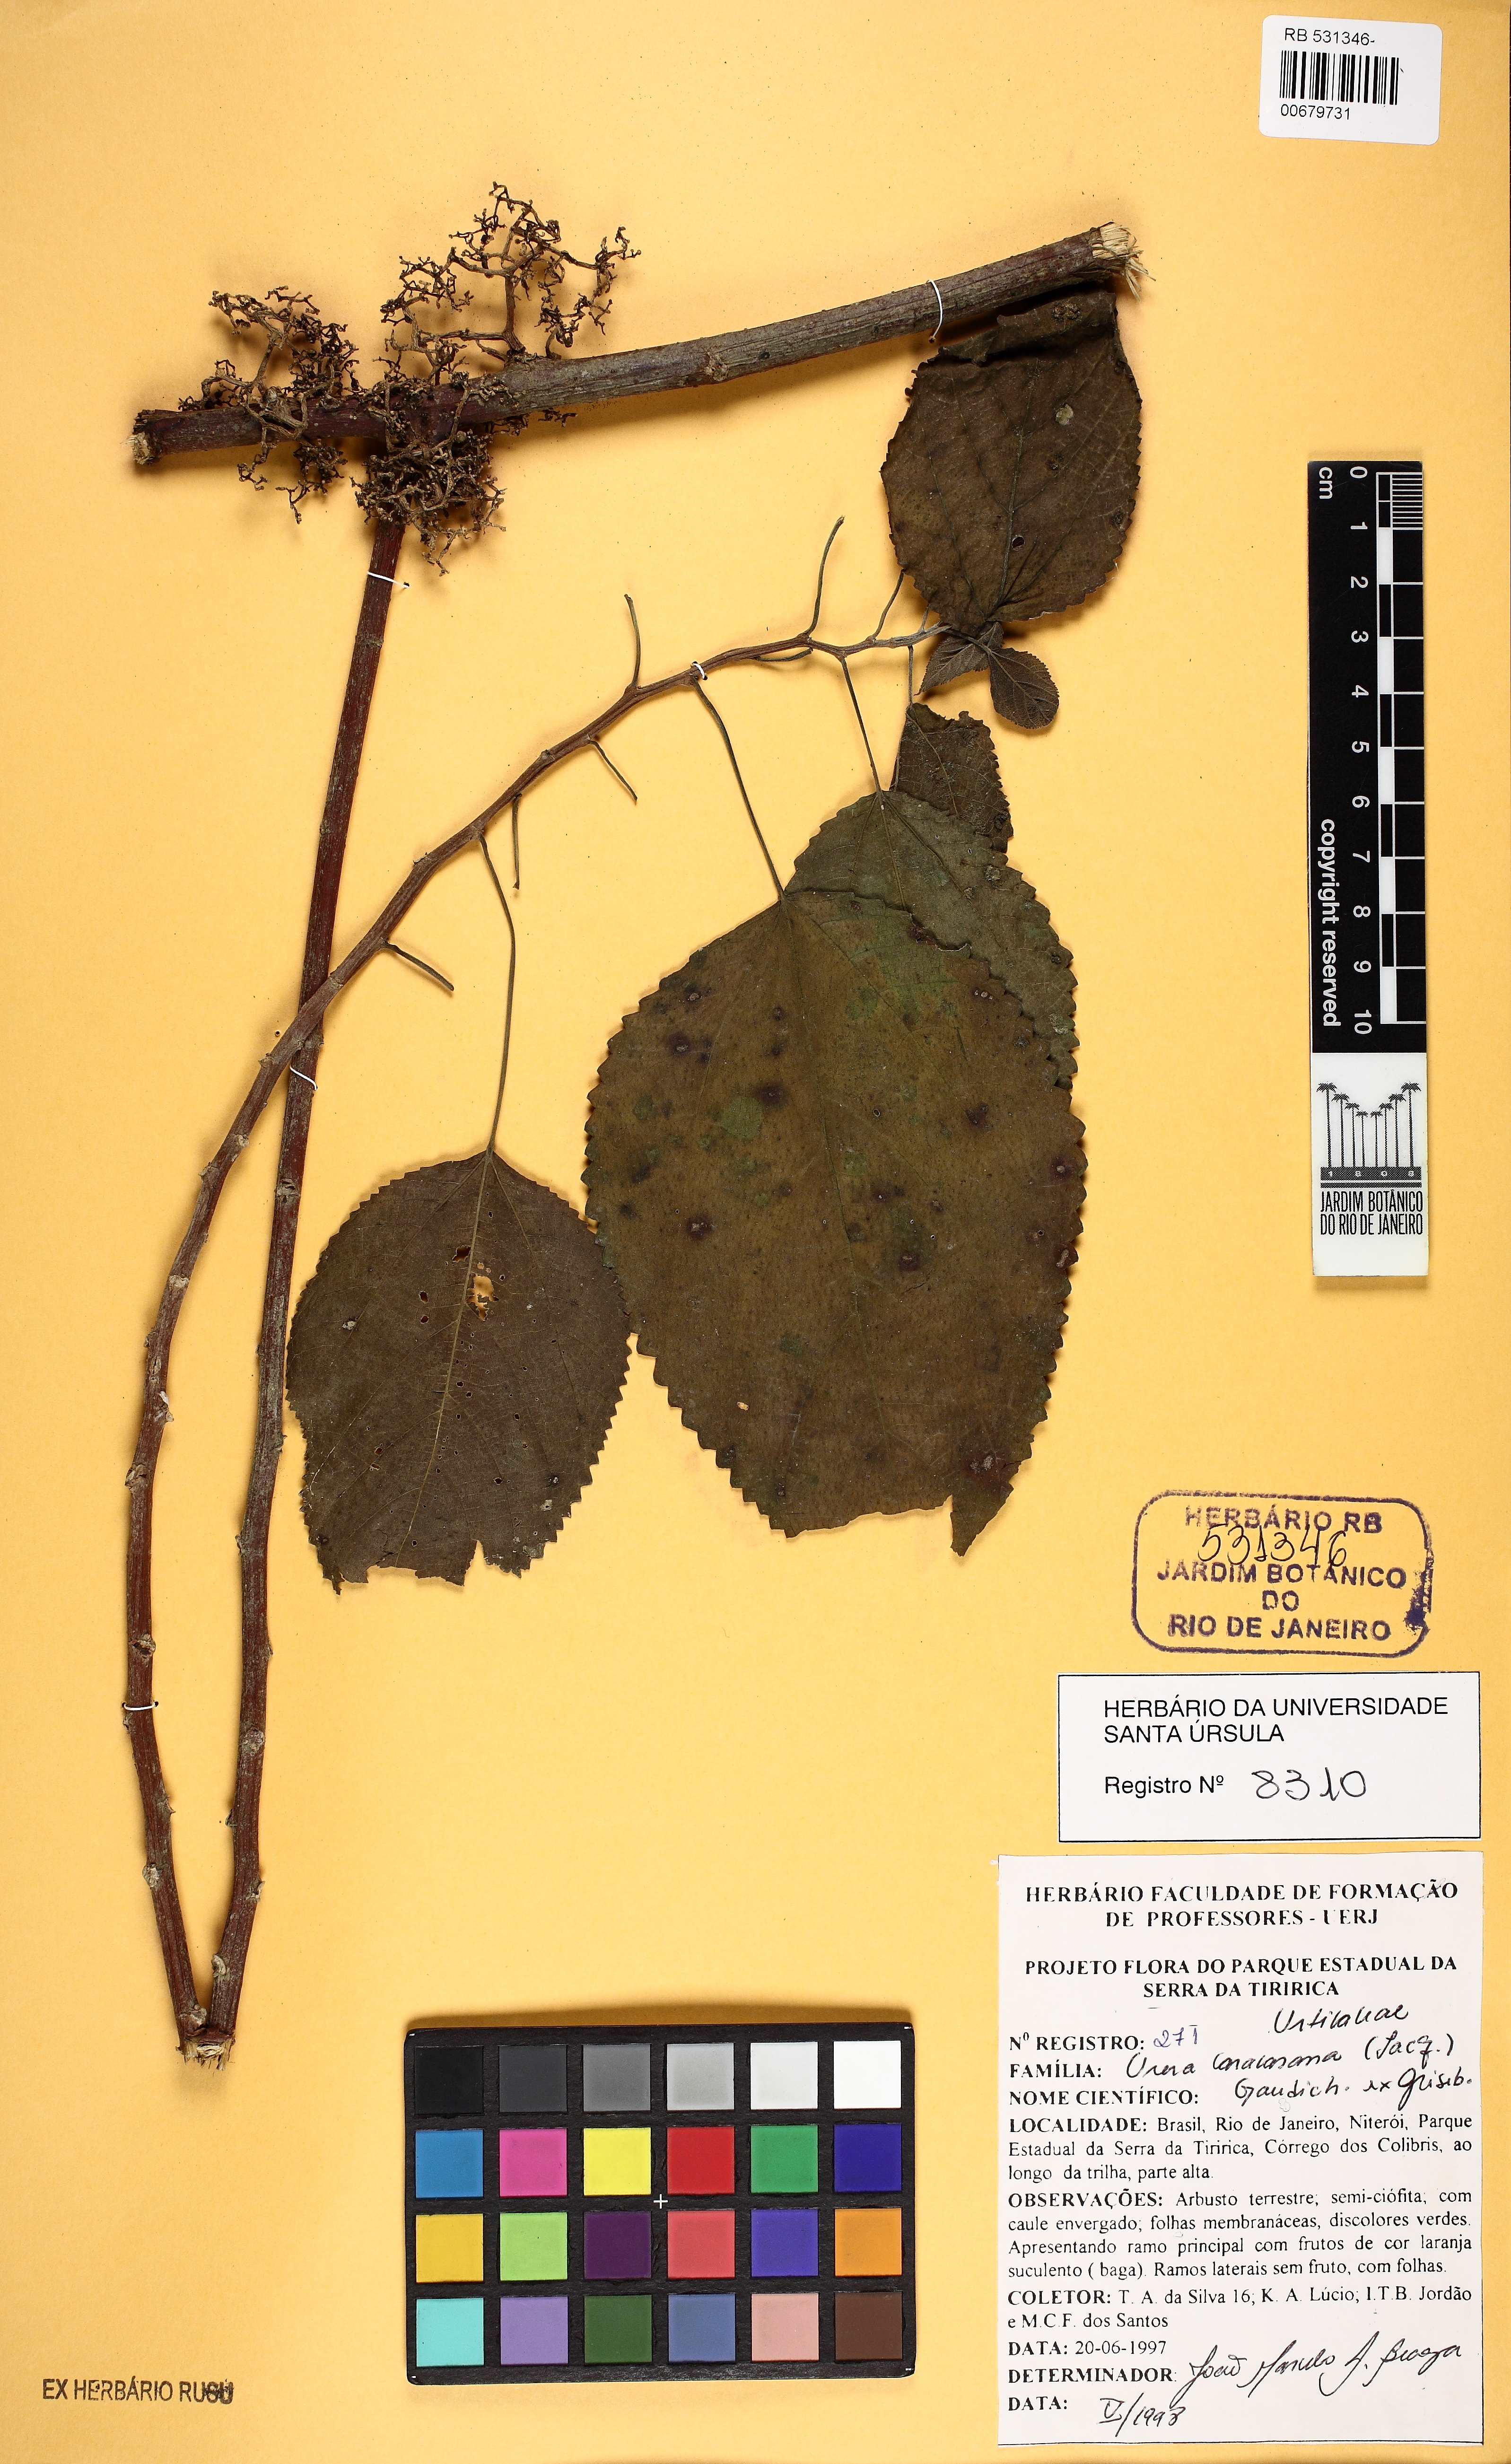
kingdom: Plantae
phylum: Tracheophyta
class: Magnoliopsida
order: Rosales
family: Urticaceae
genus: Urera
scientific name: Urera caracasana
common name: Flameberry
